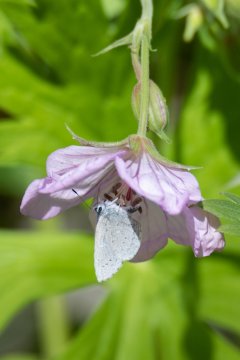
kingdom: Animalia
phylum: Arthropoda
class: Insecta
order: Lepidoptera
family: Lycaenidae
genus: Celastrina
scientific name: Celastrina ladon
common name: Echo Azure
